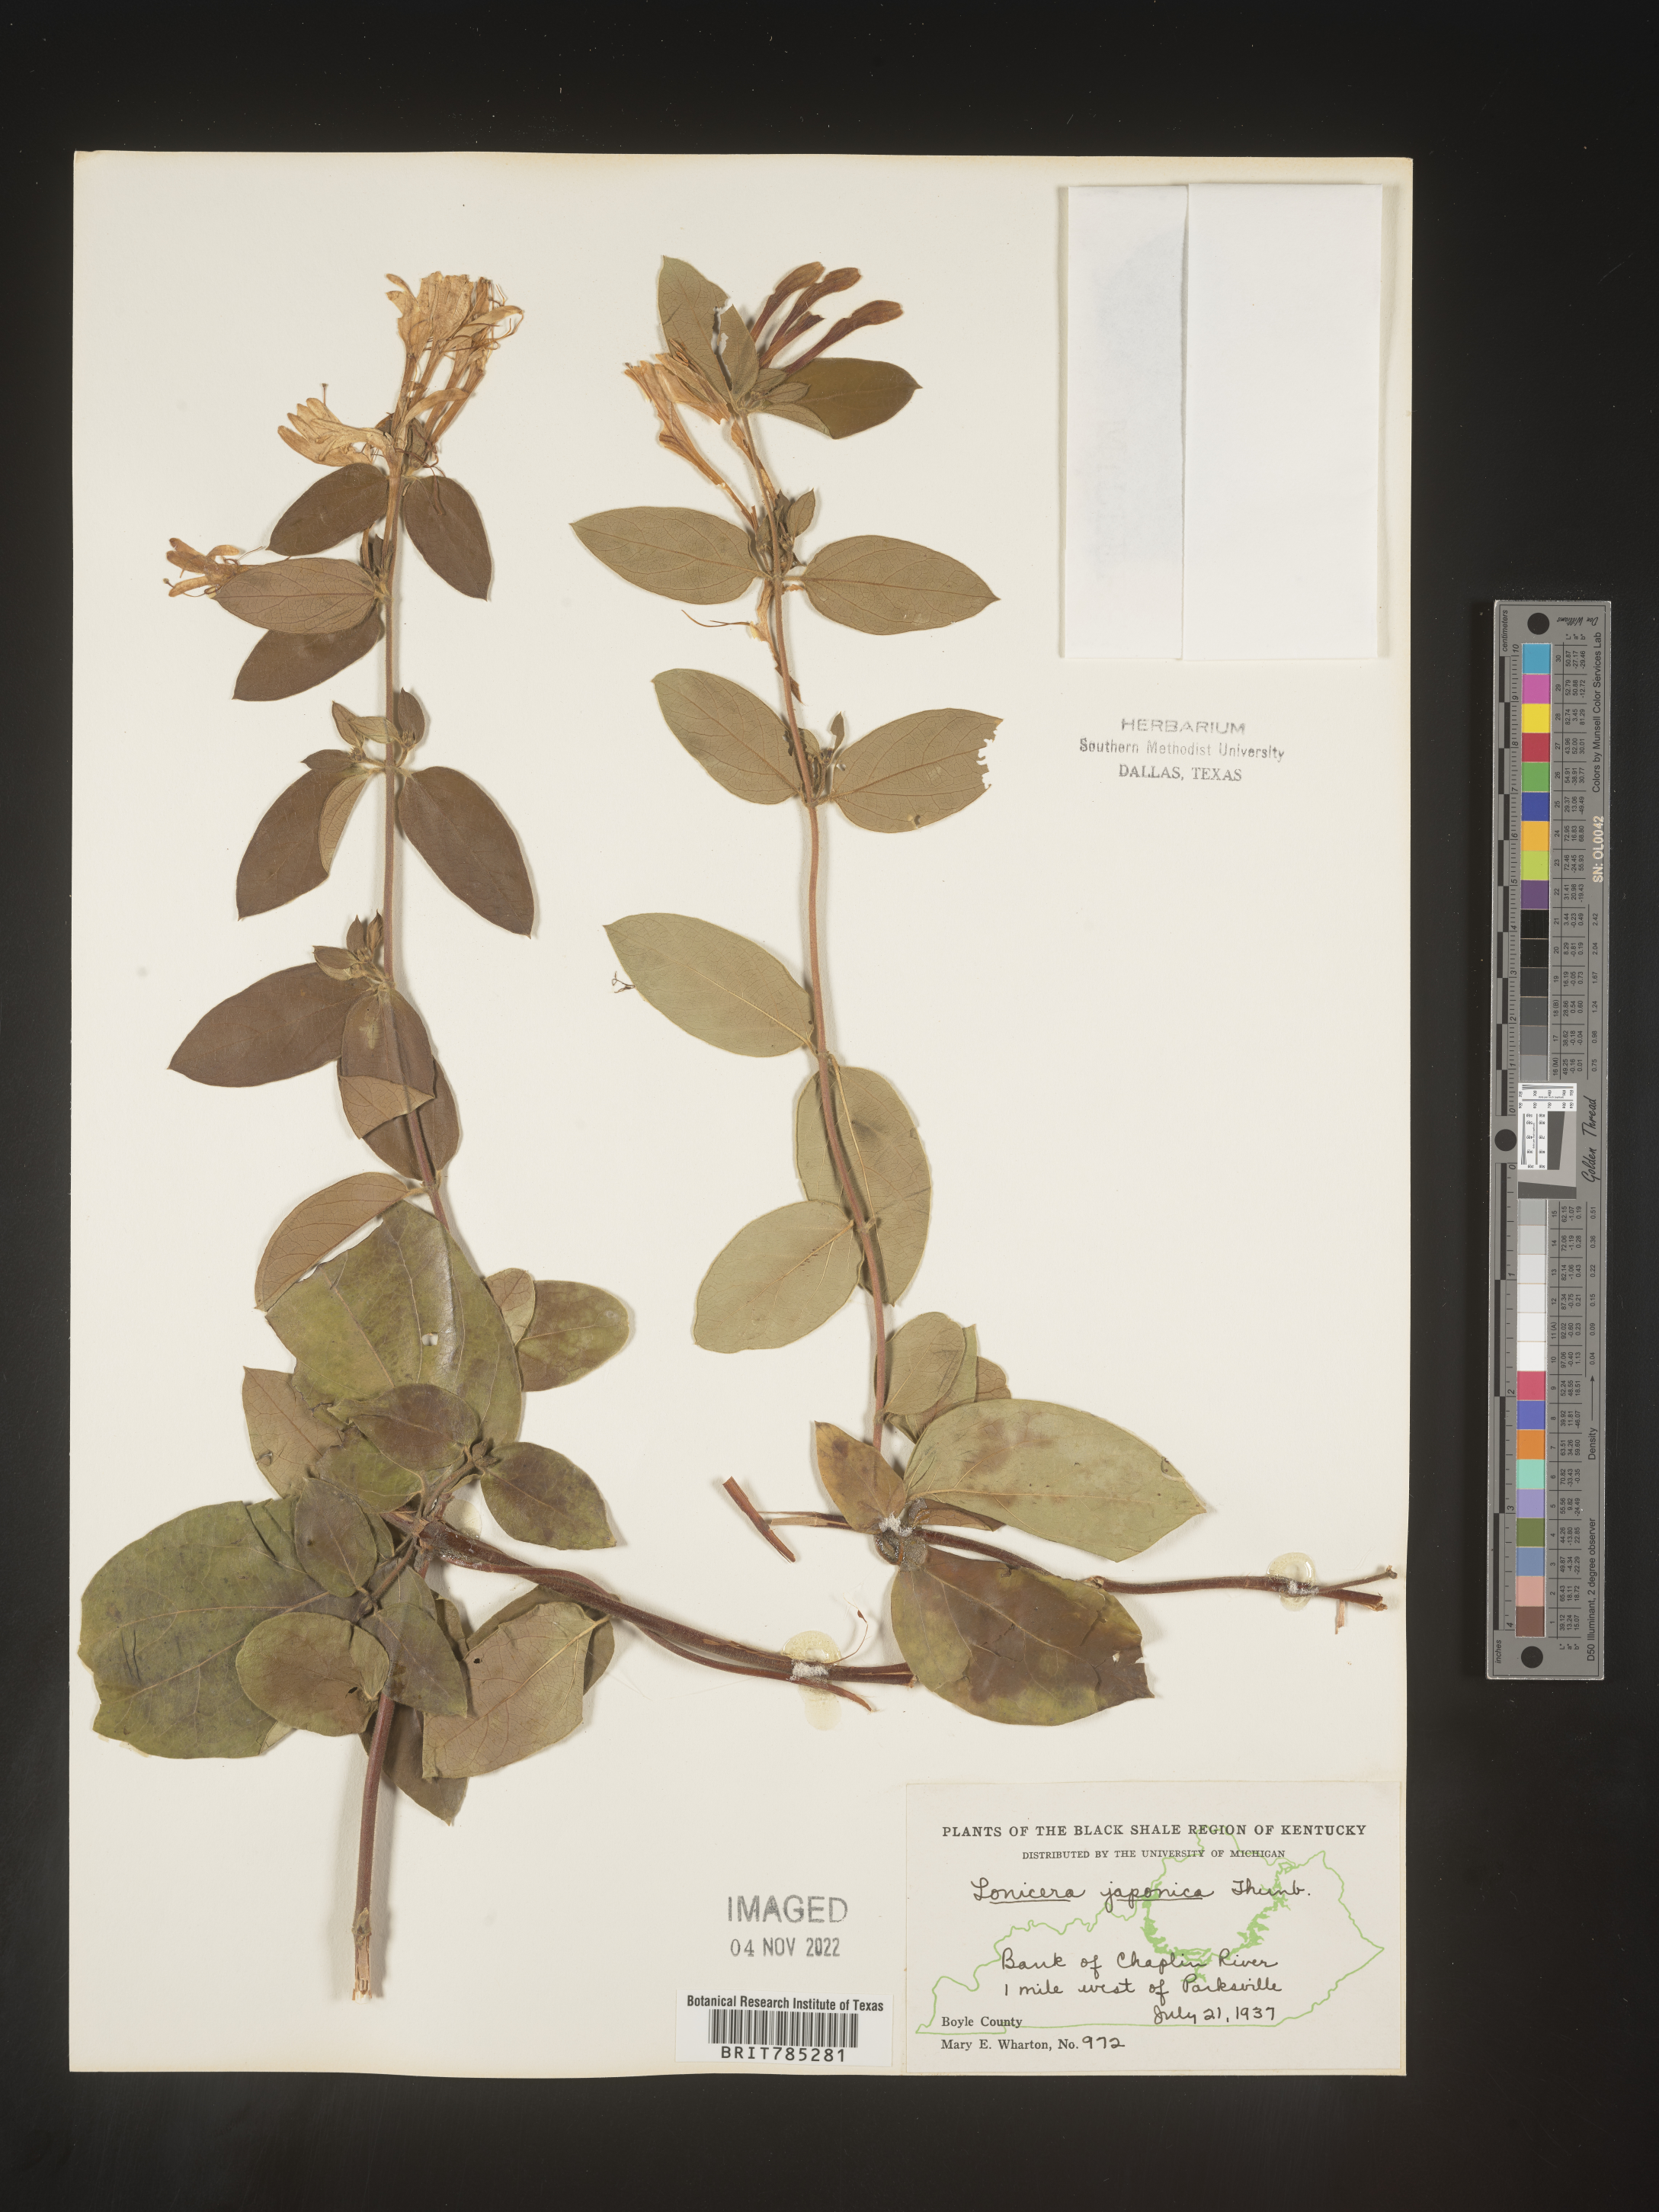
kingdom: Plantae
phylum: Tracheophyta
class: Magnoliopsida
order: Dipsacales
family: Caprifoliaceae
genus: Lonicera
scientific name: Lonicera japonica
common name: Japanese honeysuckle
